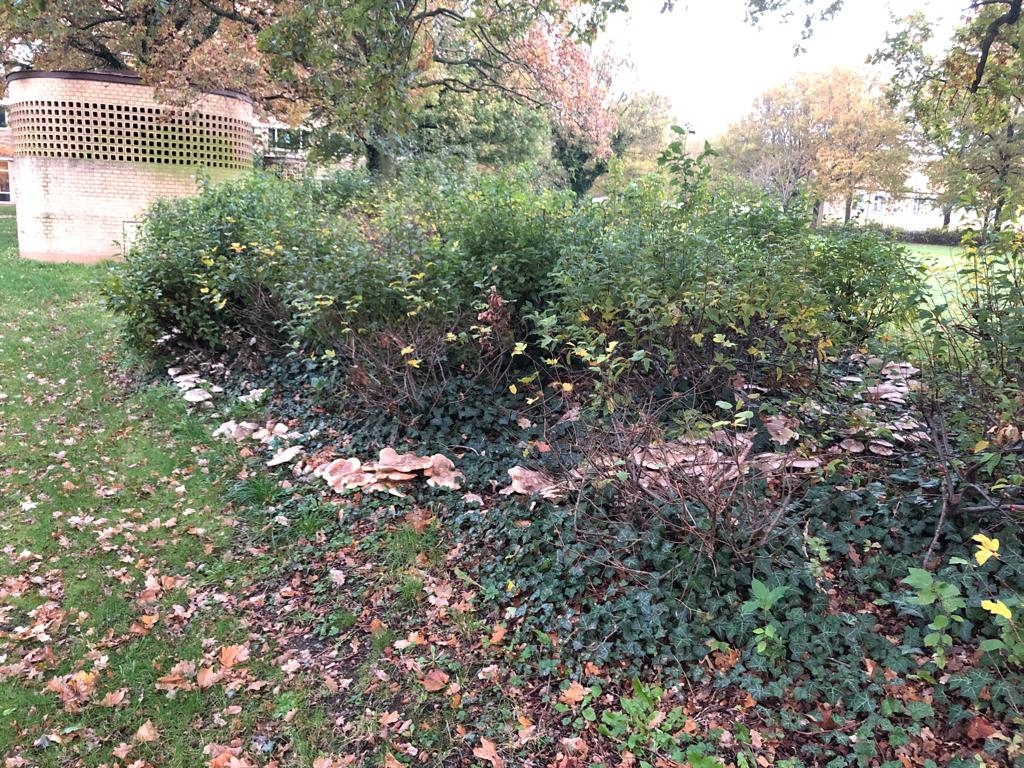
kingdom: Fungi
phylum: Basidiomycota
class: Agaricomycetes
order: Agaricales
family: Tricholomataceae
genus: Clitocybe
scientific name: Clitocybe nebularis
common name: tåge-tragthat
